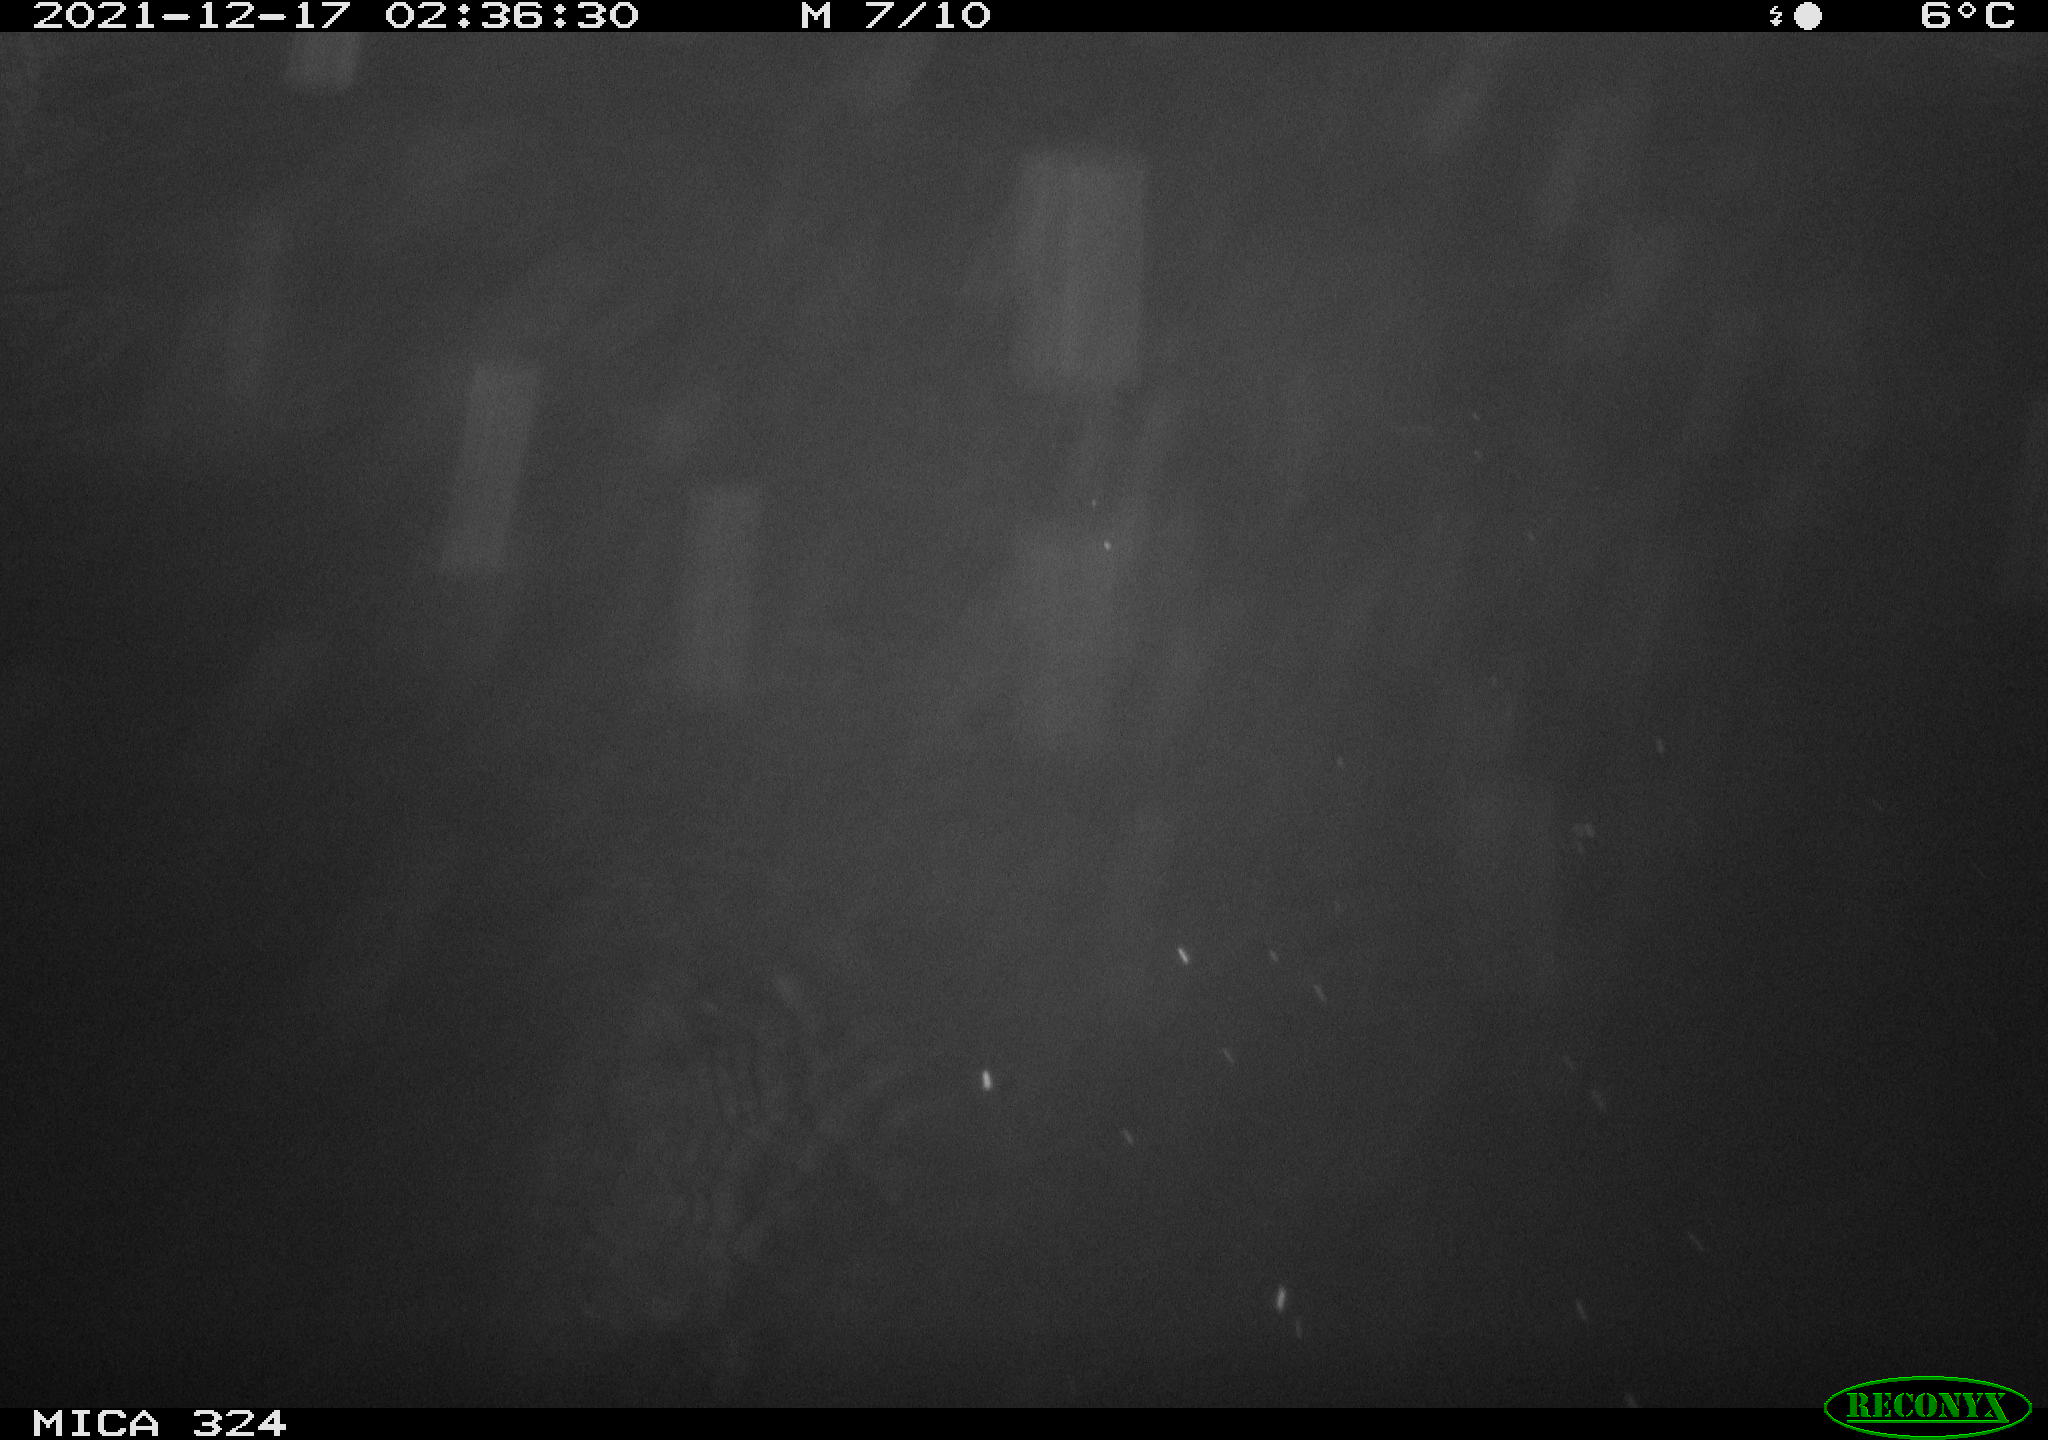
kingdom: Animalia
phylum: Chordata
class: Mammalia
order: Rodentia
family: Cricetidae
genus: Ondatra
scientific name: Ondatra zibethicus
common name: Muskrat
